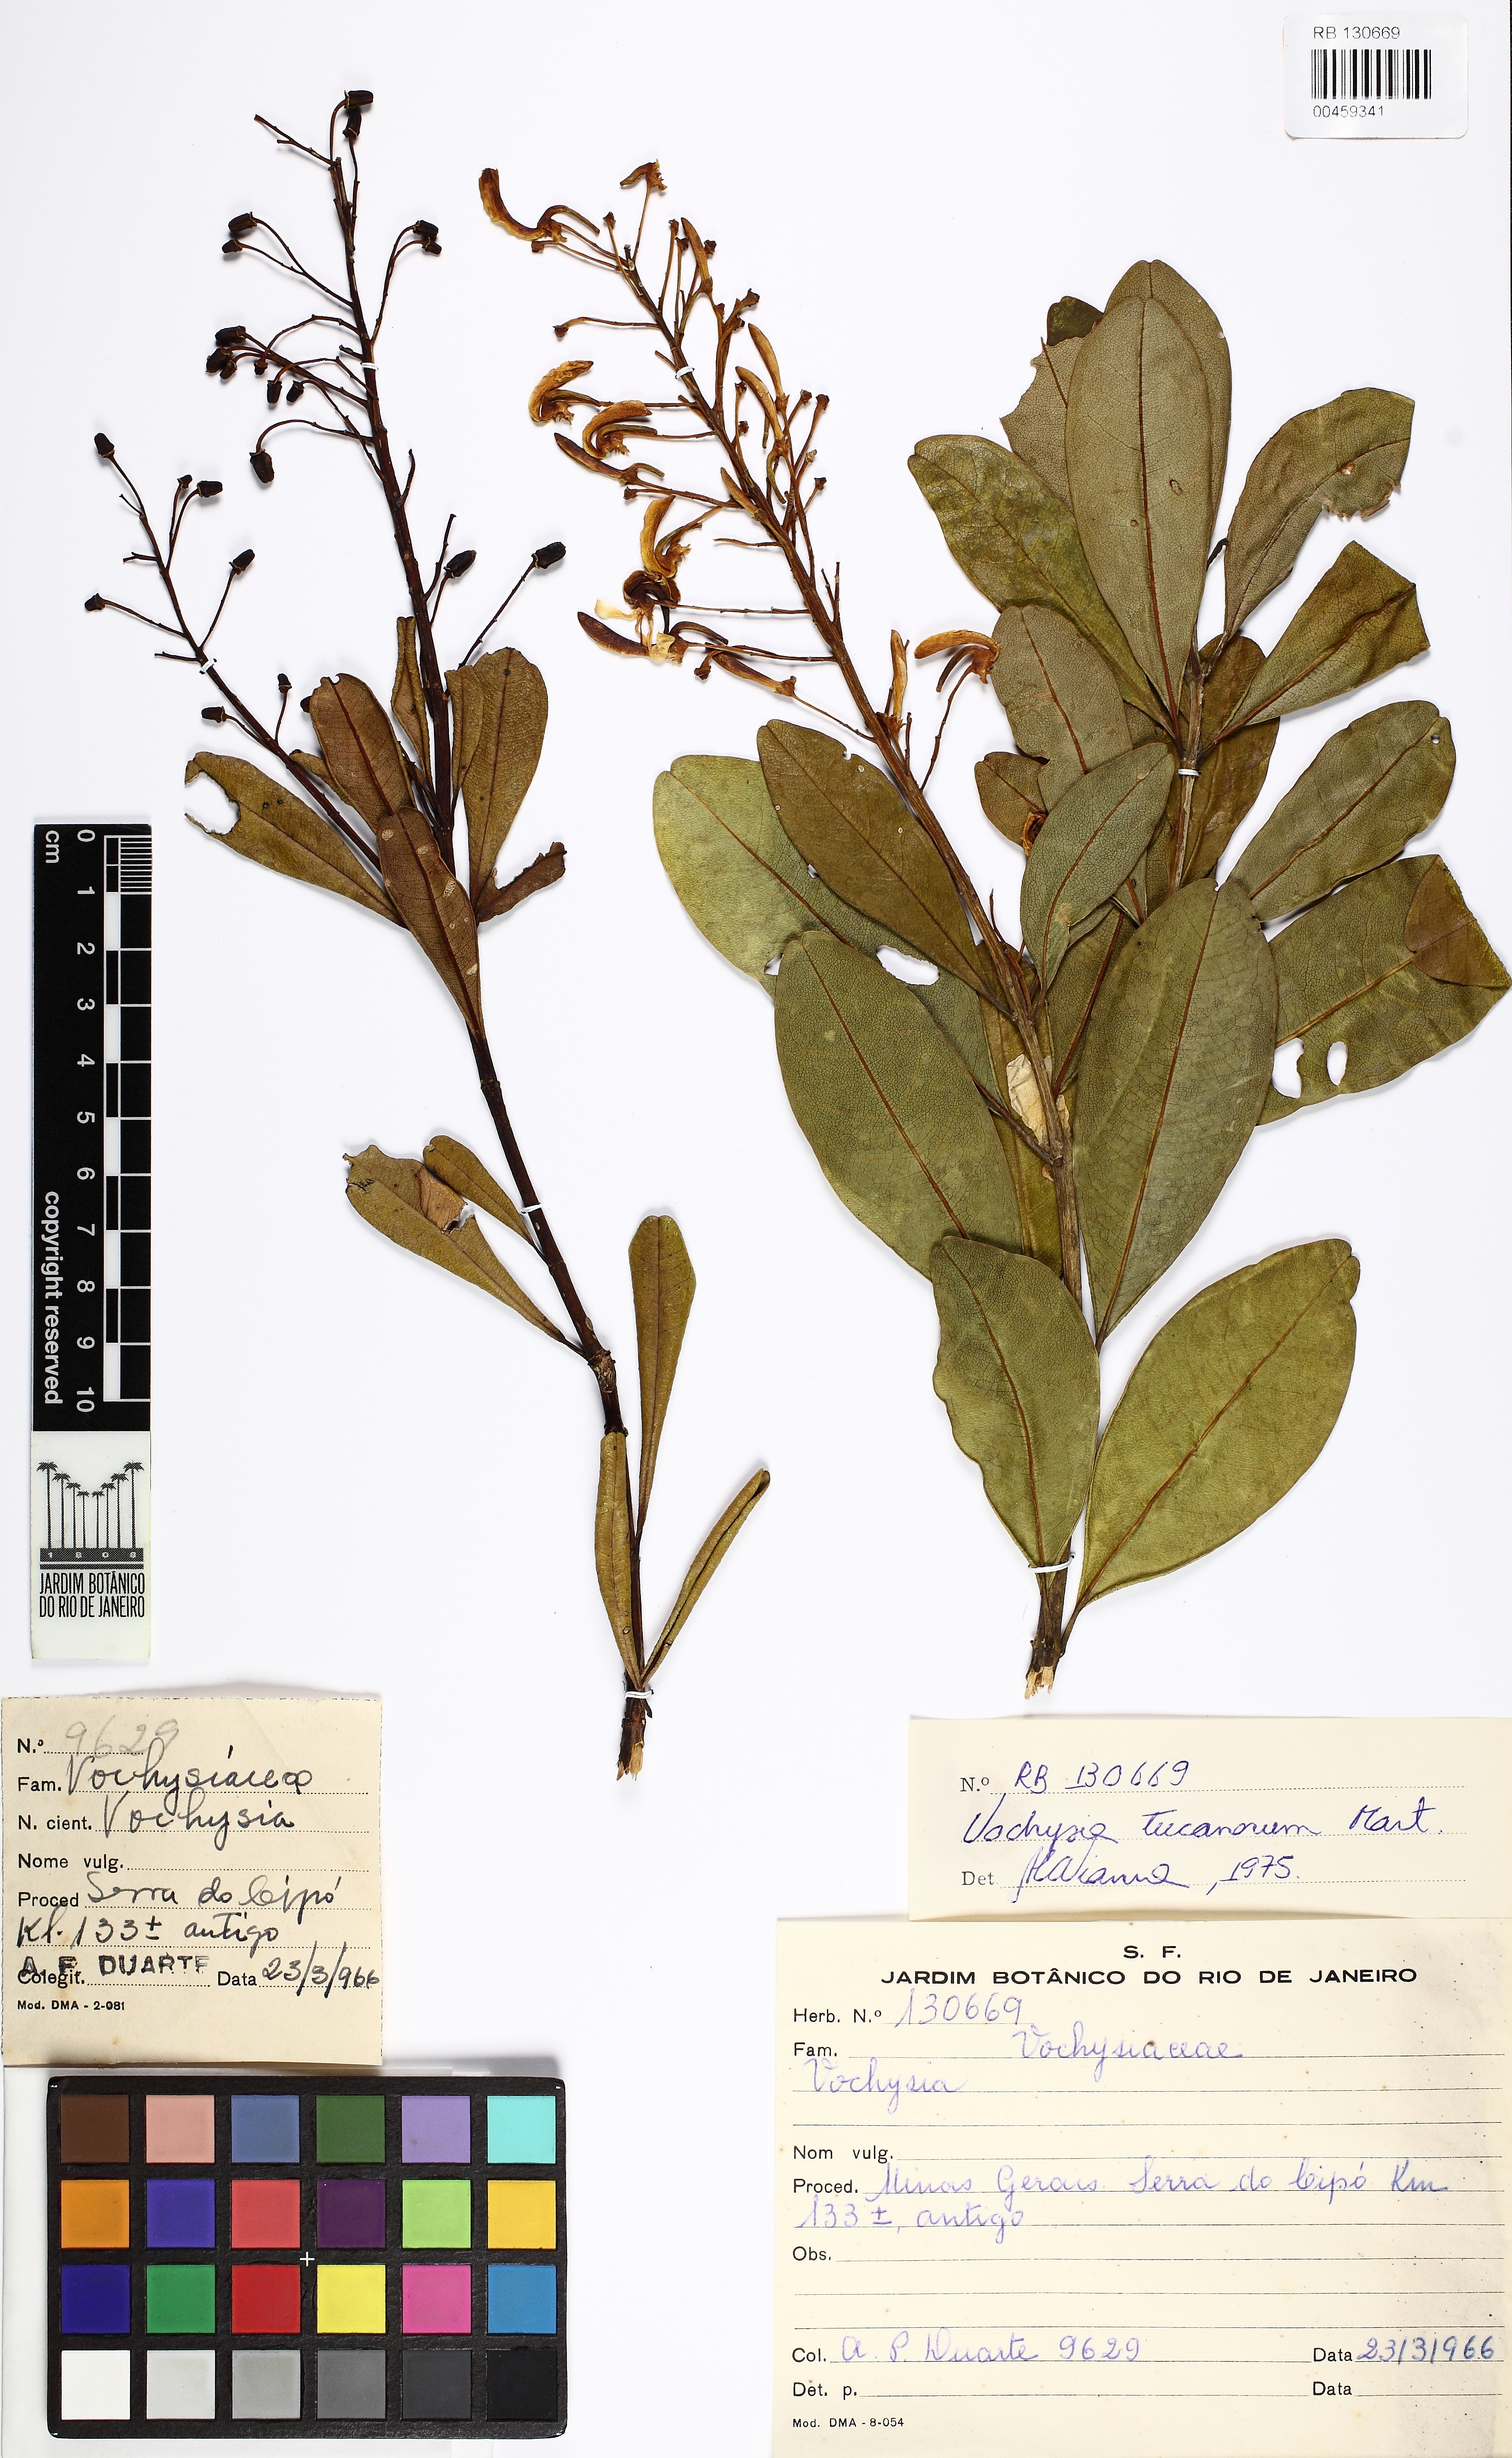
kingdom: Plantae
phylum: Tracheophyta
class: Magnoliopsida
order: Myrtales
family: Vochysiaceae
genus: Vochysia
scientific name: Vochysia tucanorum
